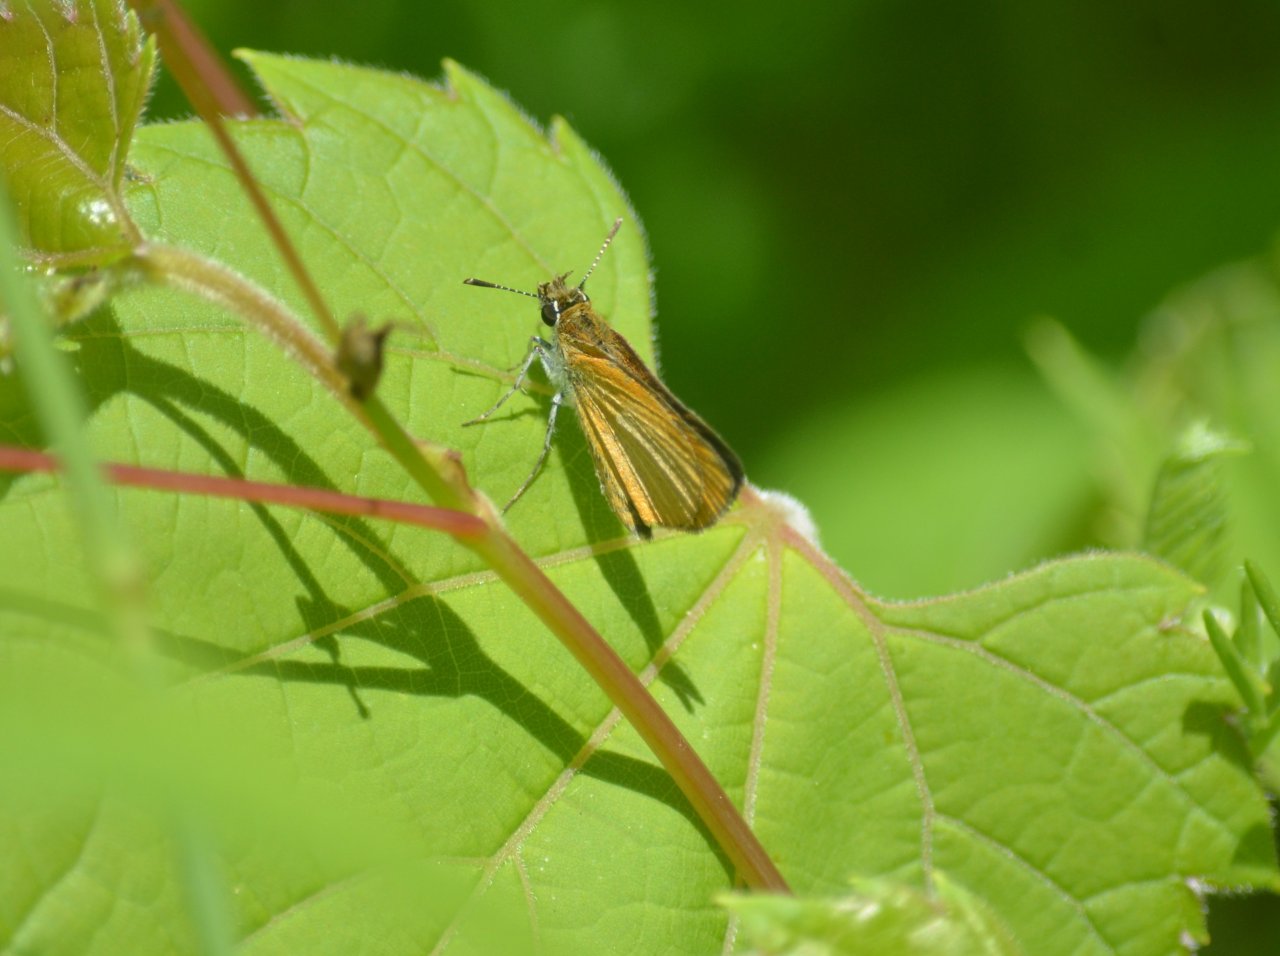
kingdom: Animalia
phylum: Arthropoda
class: Insecta
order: Lepidoptera
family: Hesperiidae
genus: Thymelicus
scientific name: Thymelicus lineola
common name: European Skipper
